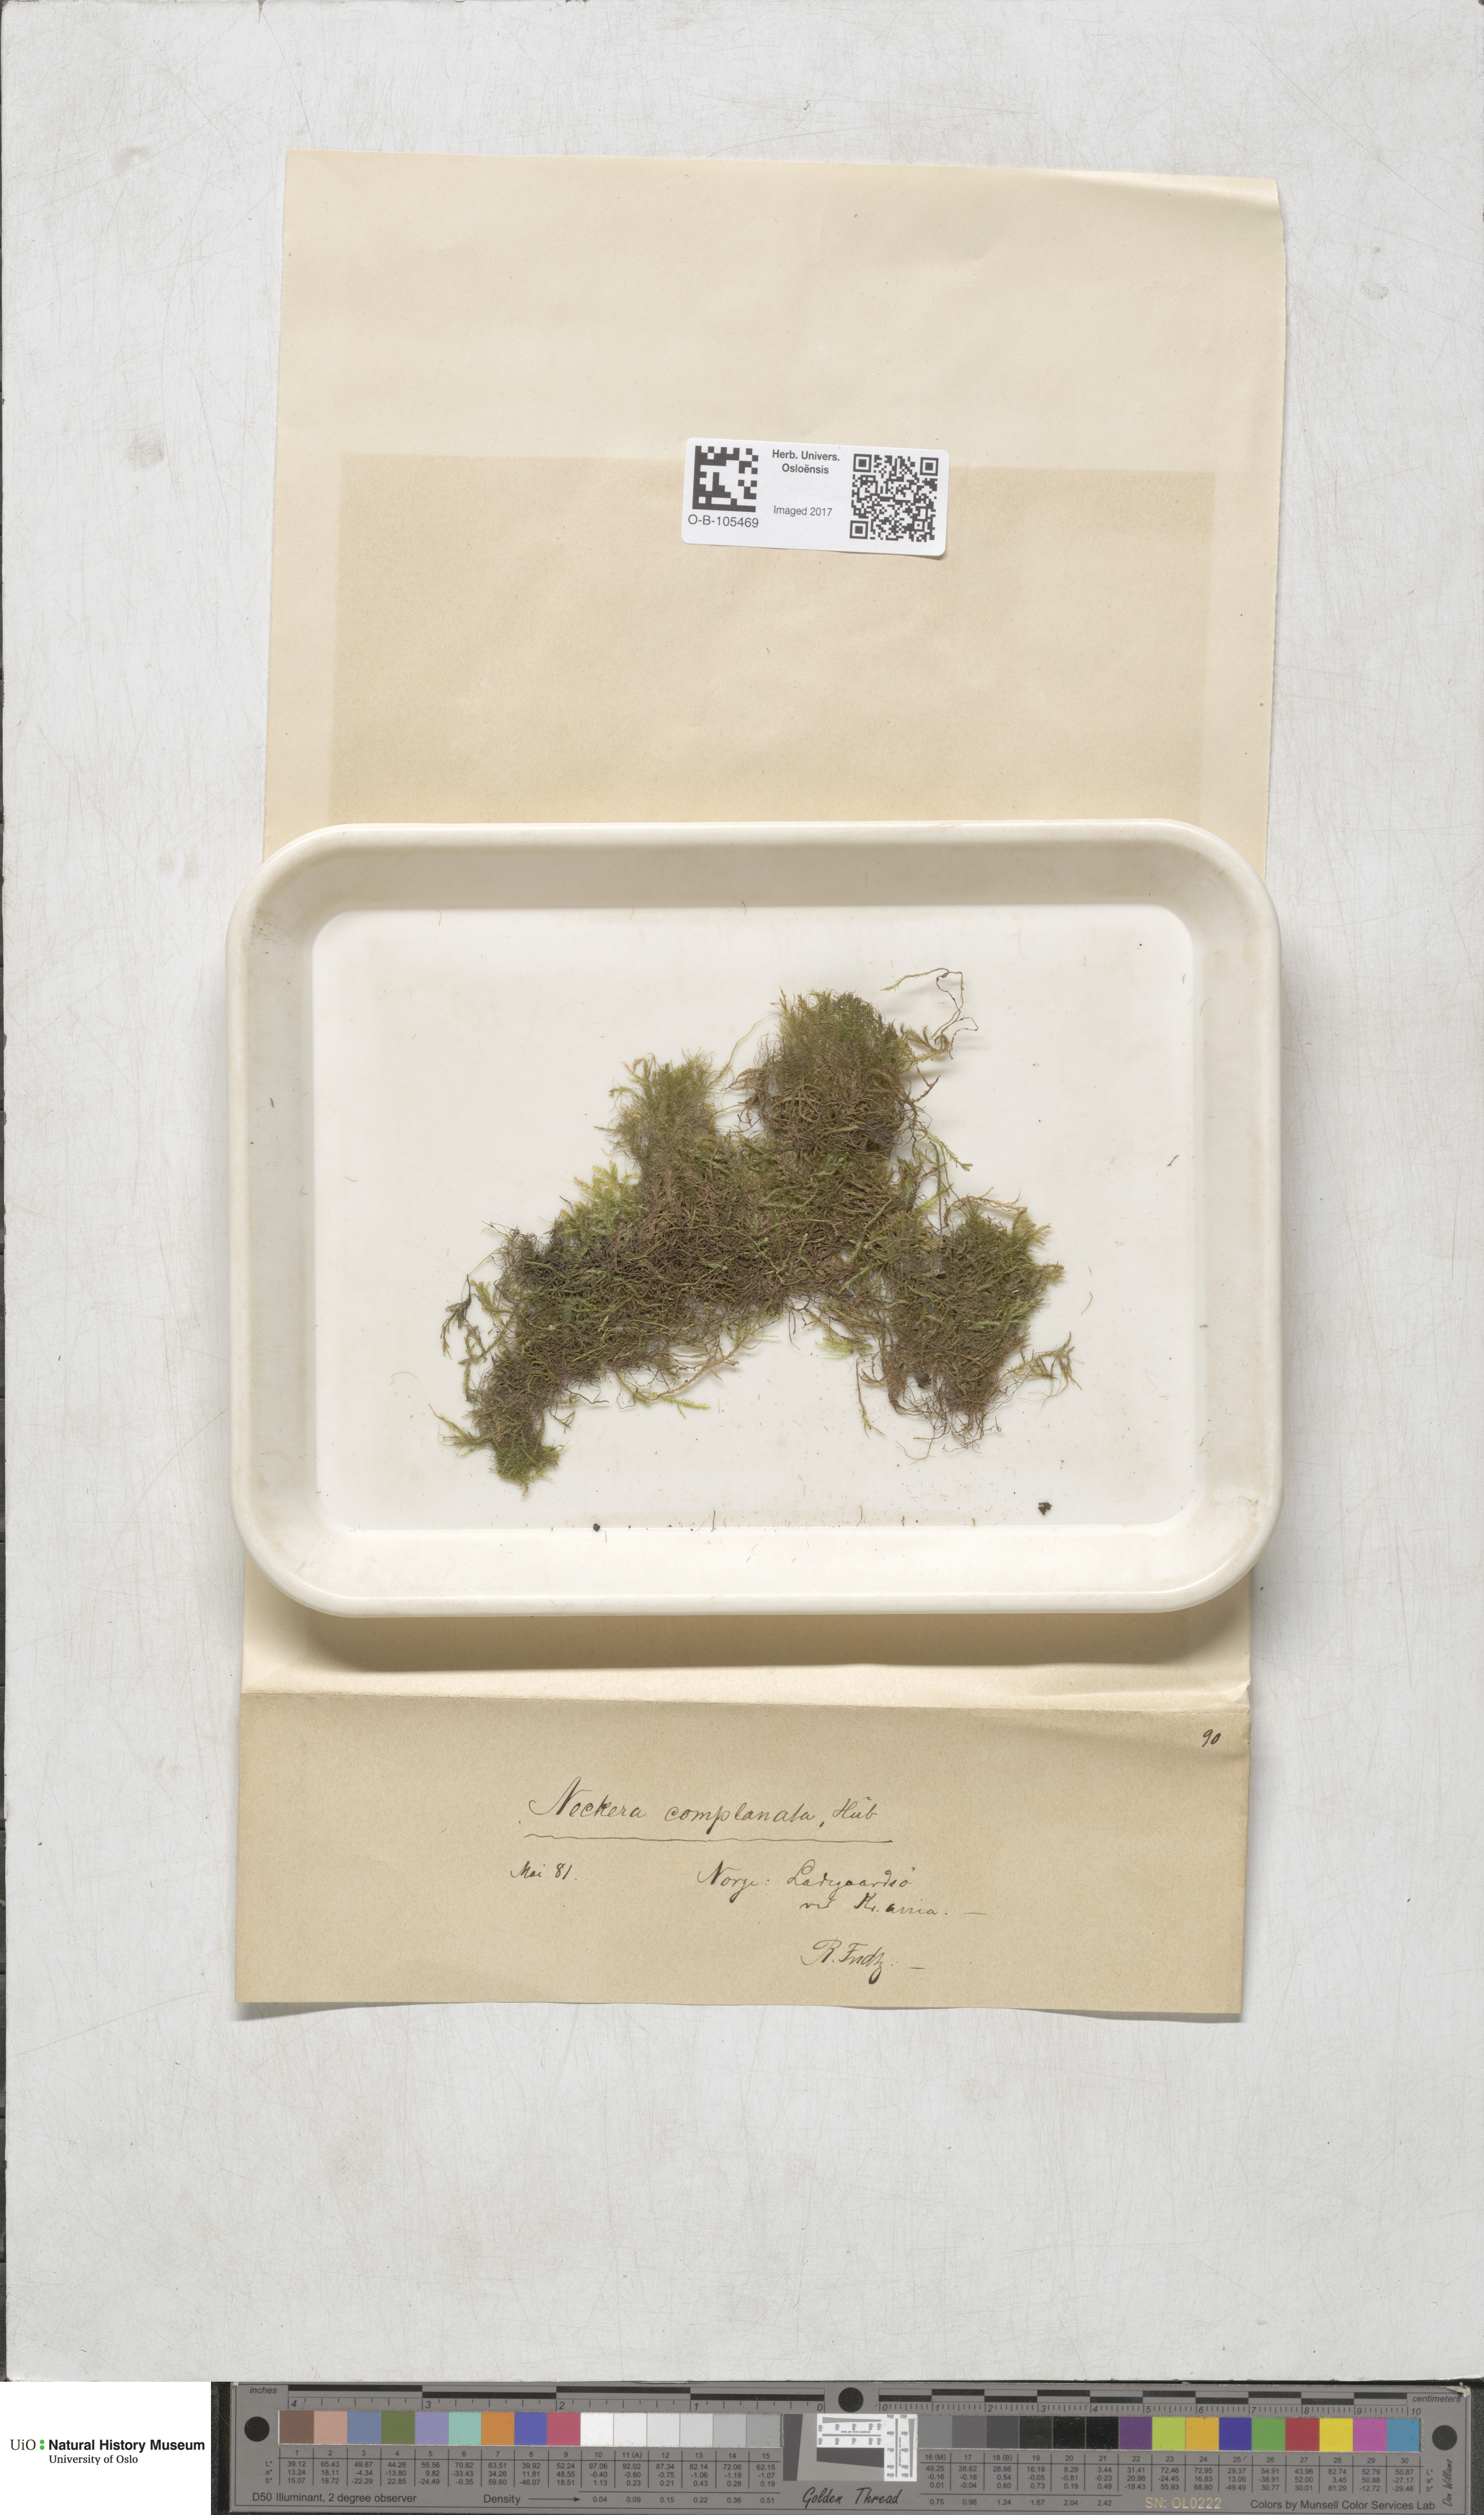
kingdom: Plantae
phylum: Bryophyta
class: Bryopsida
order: Hypnales
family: Neckeraceae
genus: Alleniella
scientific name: Alleniella complanata
